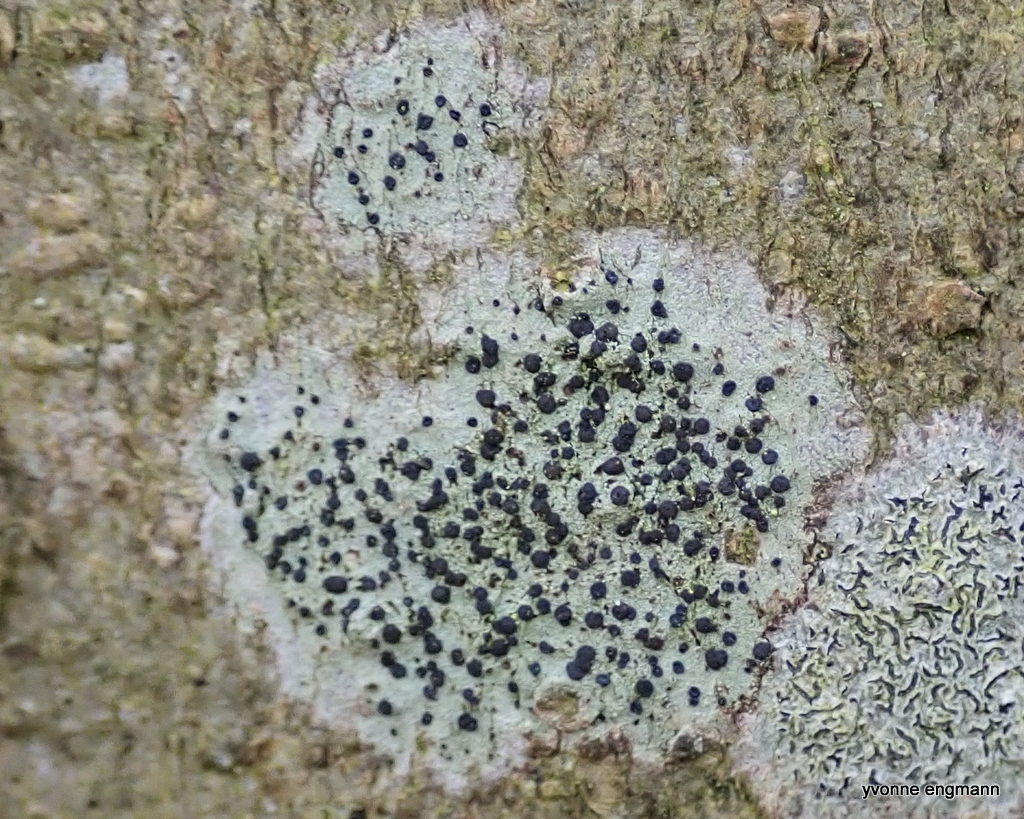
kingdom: Fungi
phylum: Ascomycota
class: Lecanoromycetes
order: Lecanorales
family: Lecanoraceae
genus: Lecidella
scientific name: Lecidella elaeochroma
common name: grågrøn skivelav
